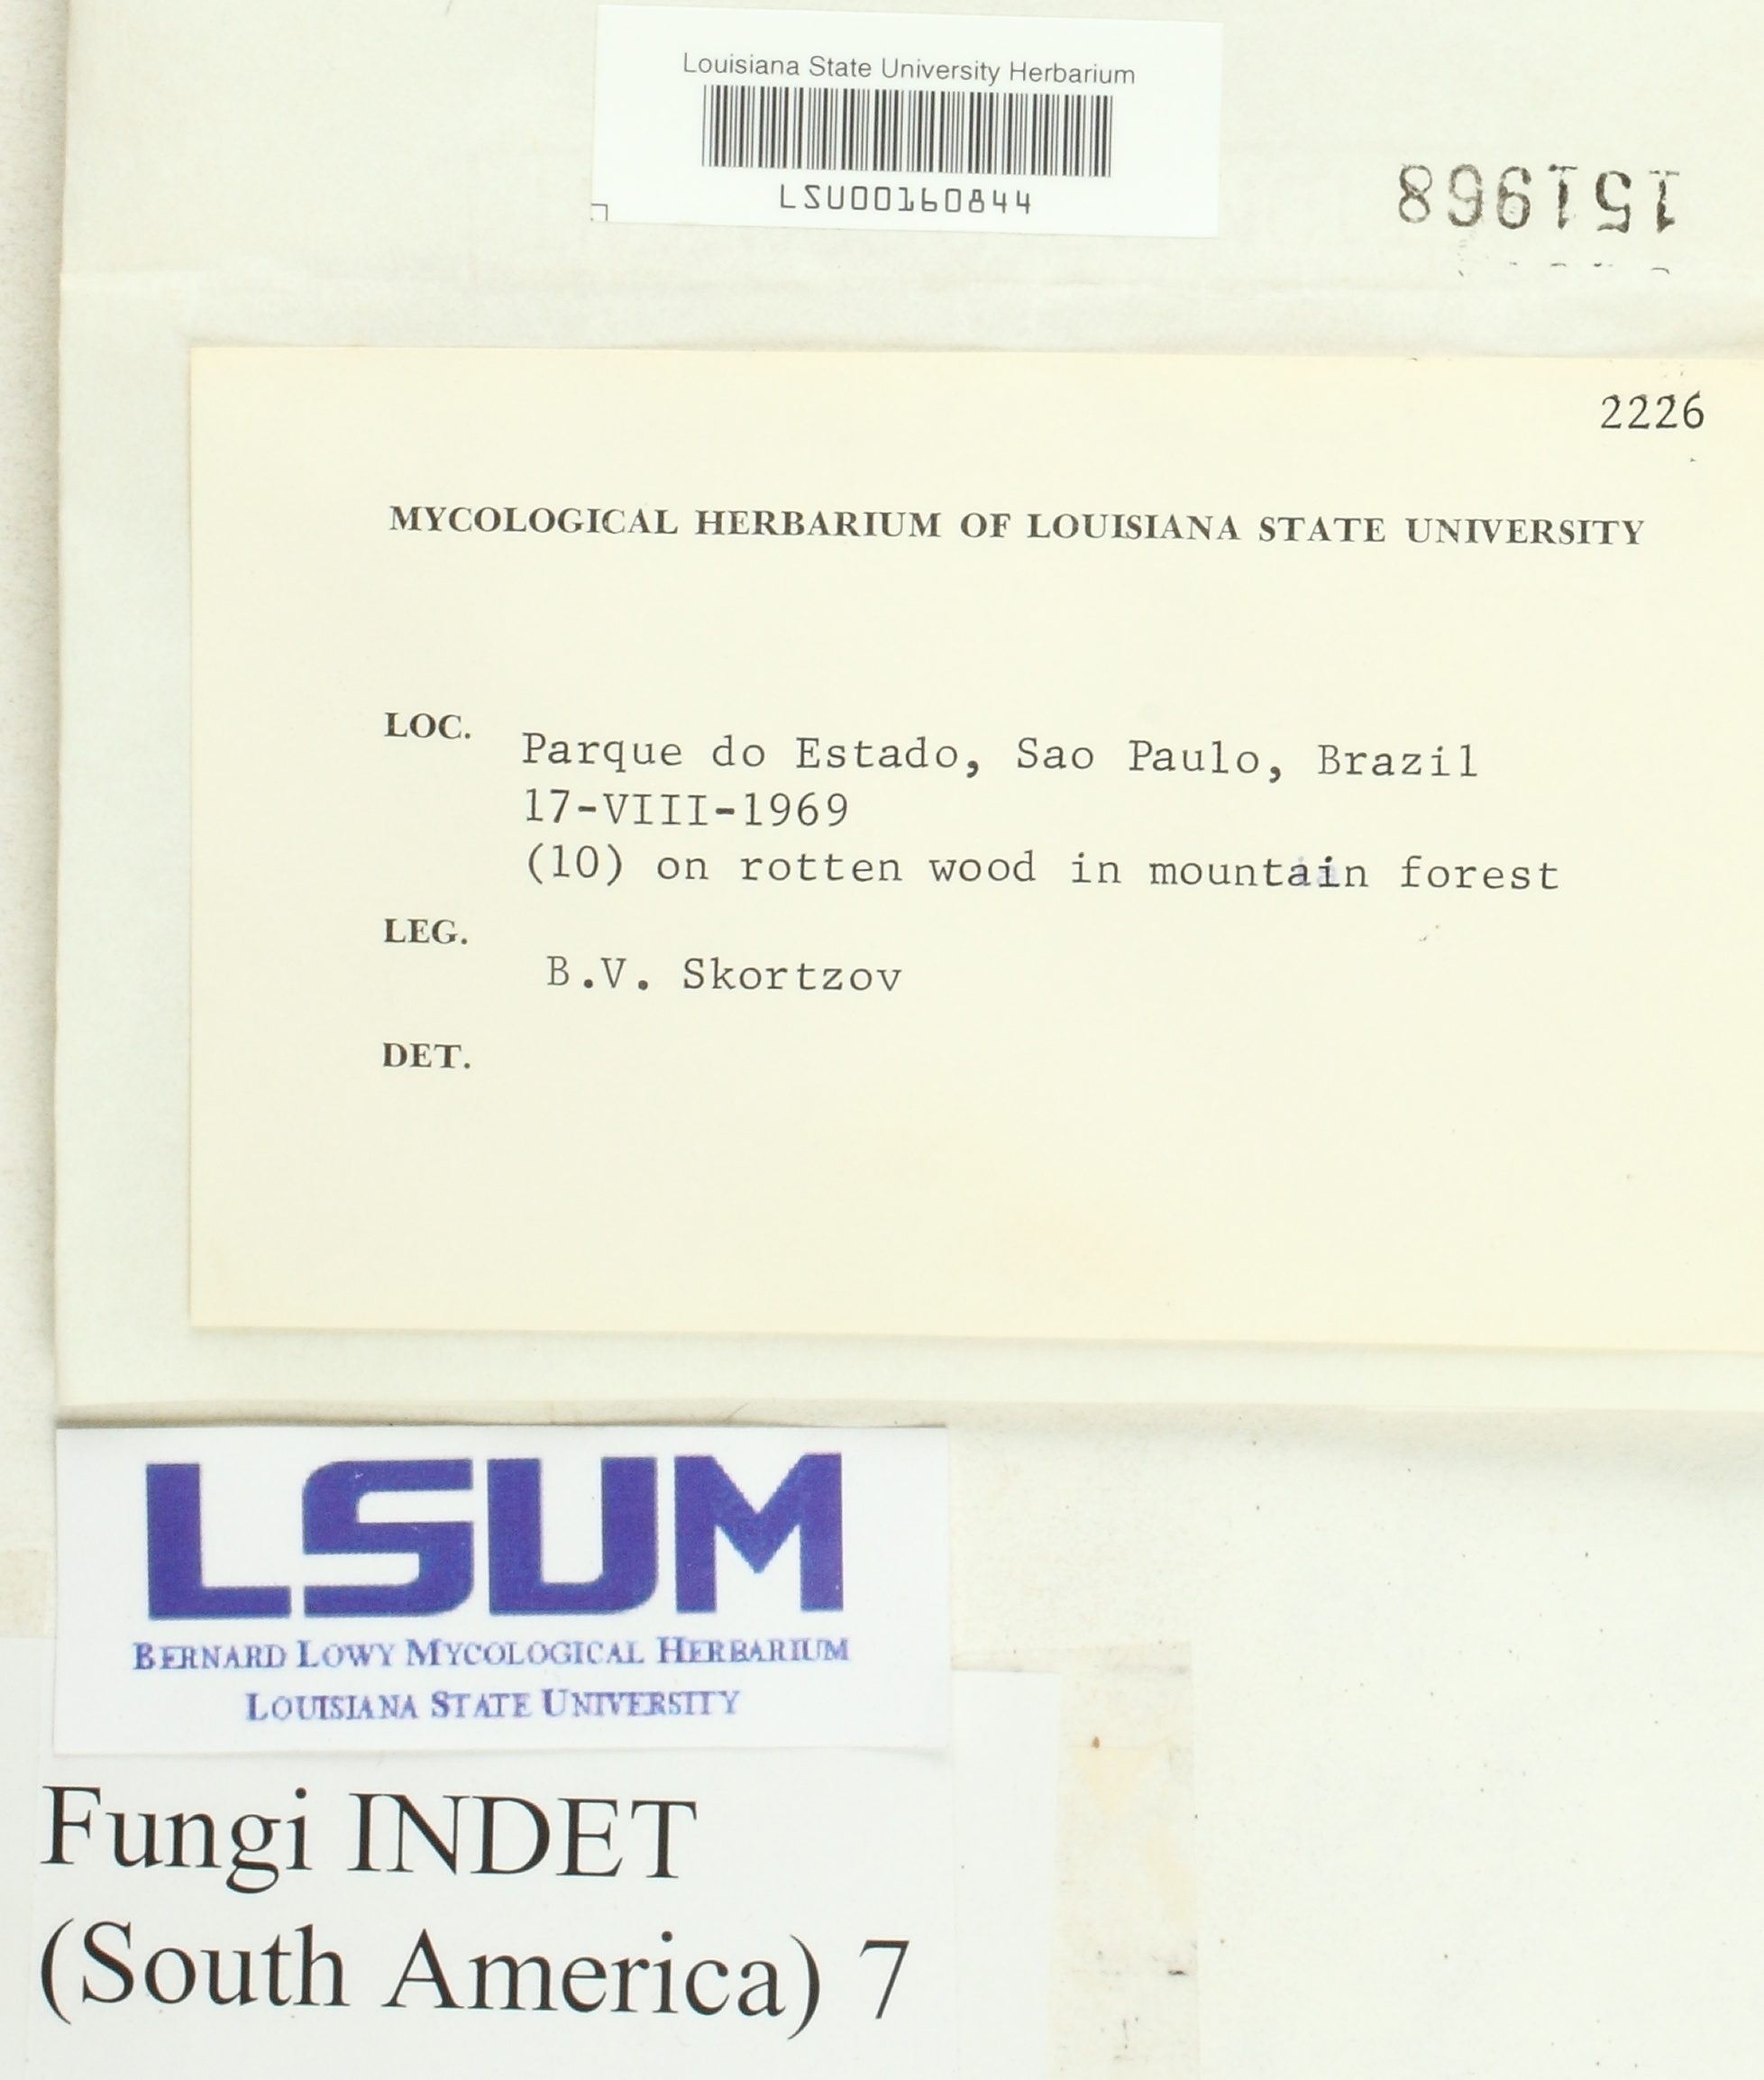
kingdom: Fungi
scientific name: Fungi
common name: Fungi
